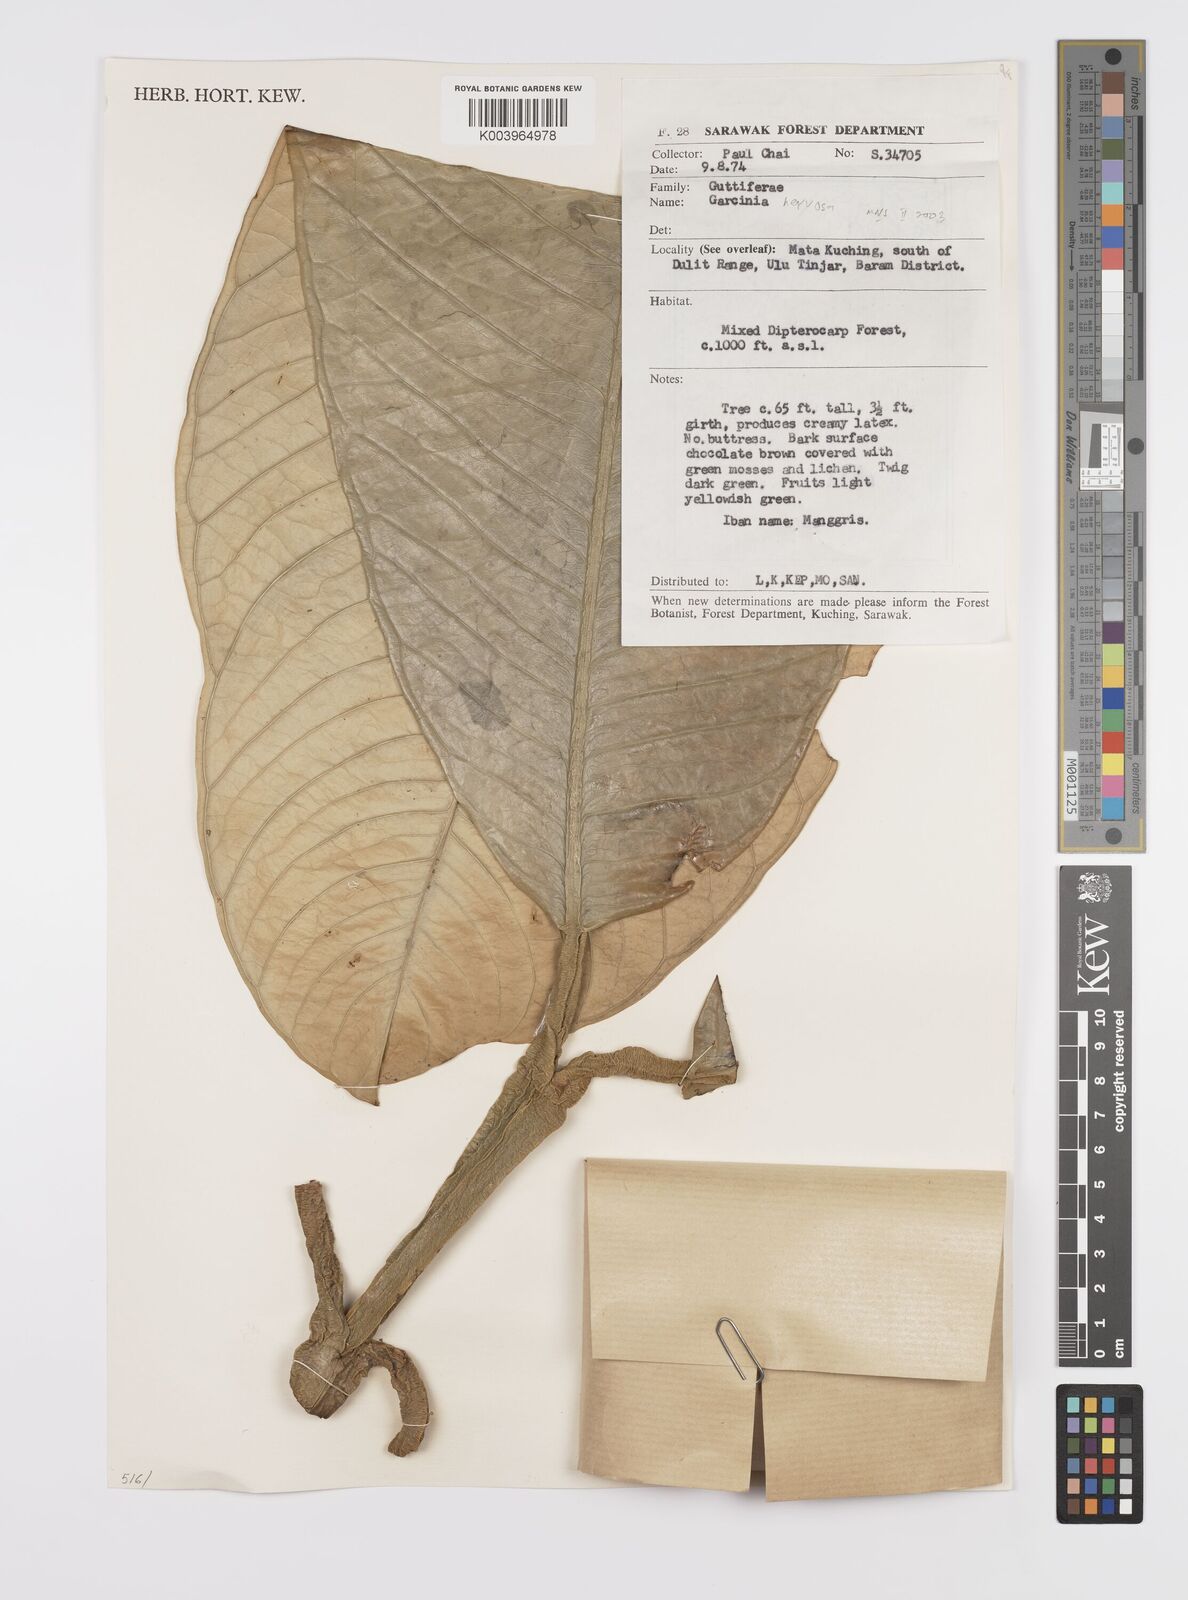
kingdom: Plantae
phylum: Tracheophyta
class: Magnoliopsida
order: Malpighiales
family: Clusiaceae
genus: Garcinia
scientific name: Garcinia nervosa
